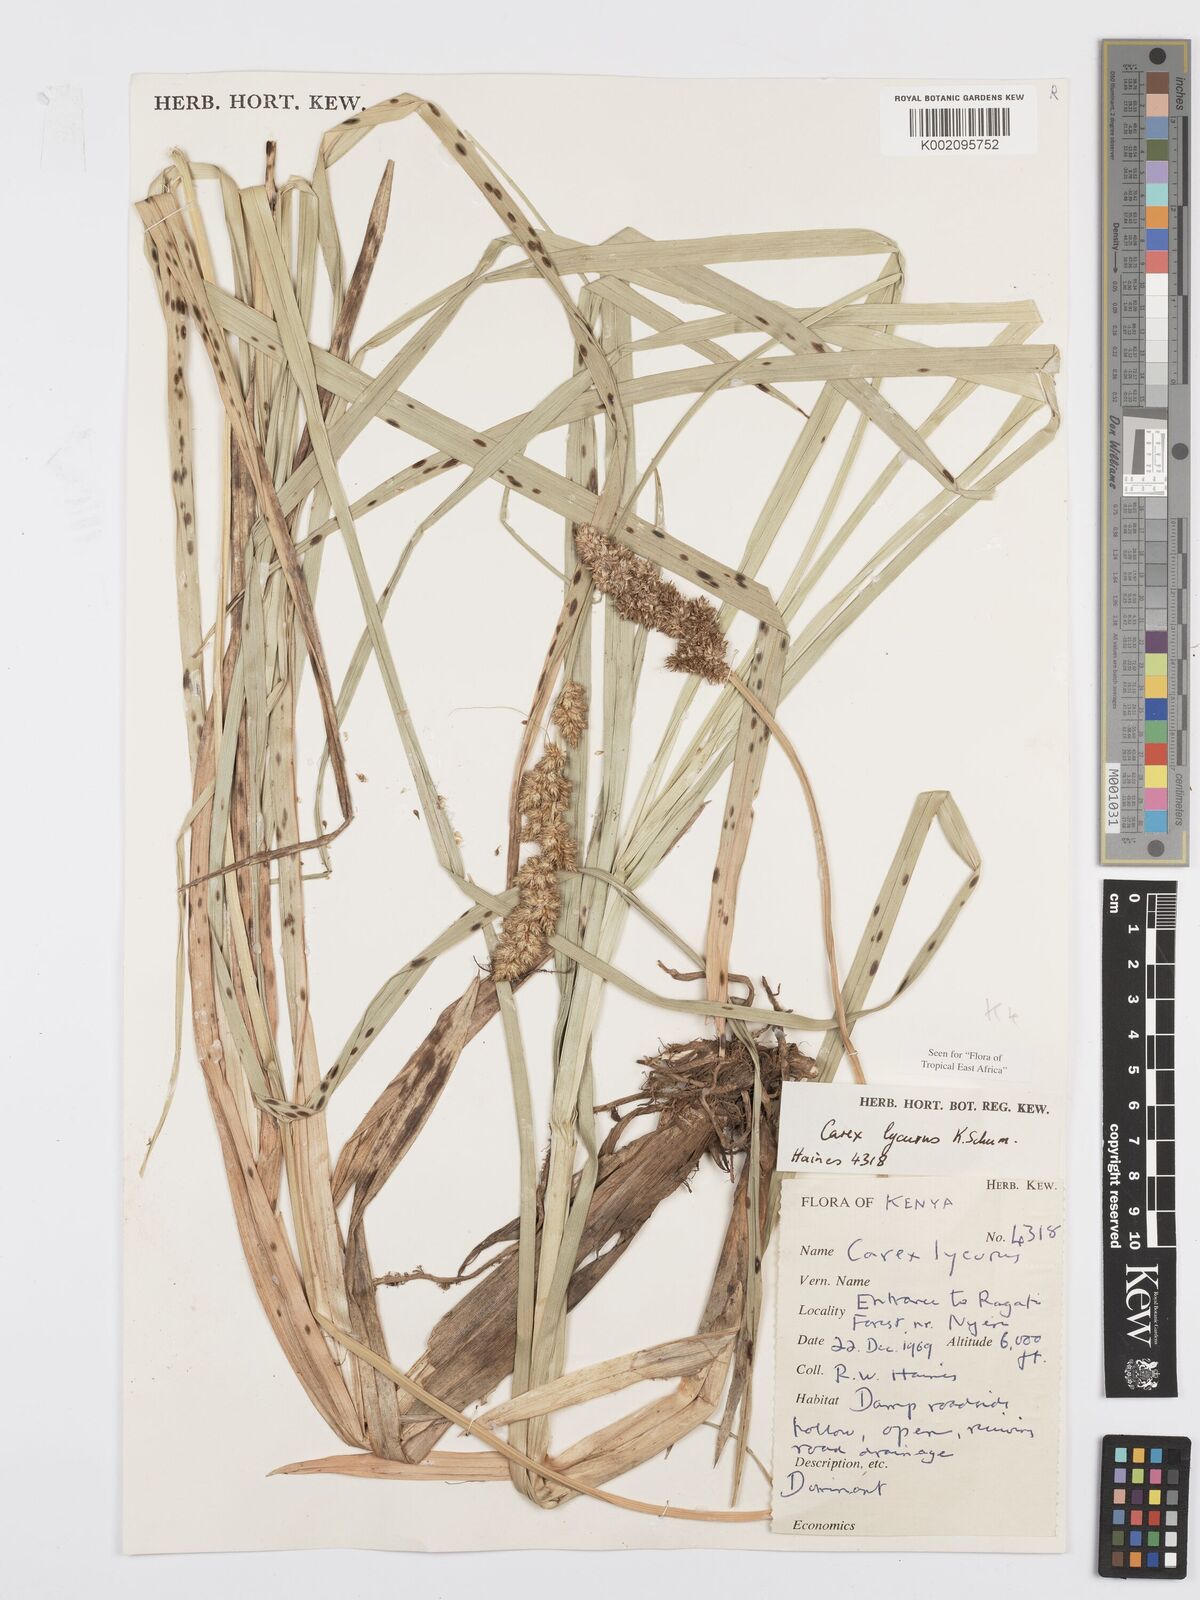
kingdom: Plantae
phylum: Tracheophyta
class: Liliopsida
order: Poales
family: Cyperaceae
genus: Carex
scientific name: Carex lycurus
